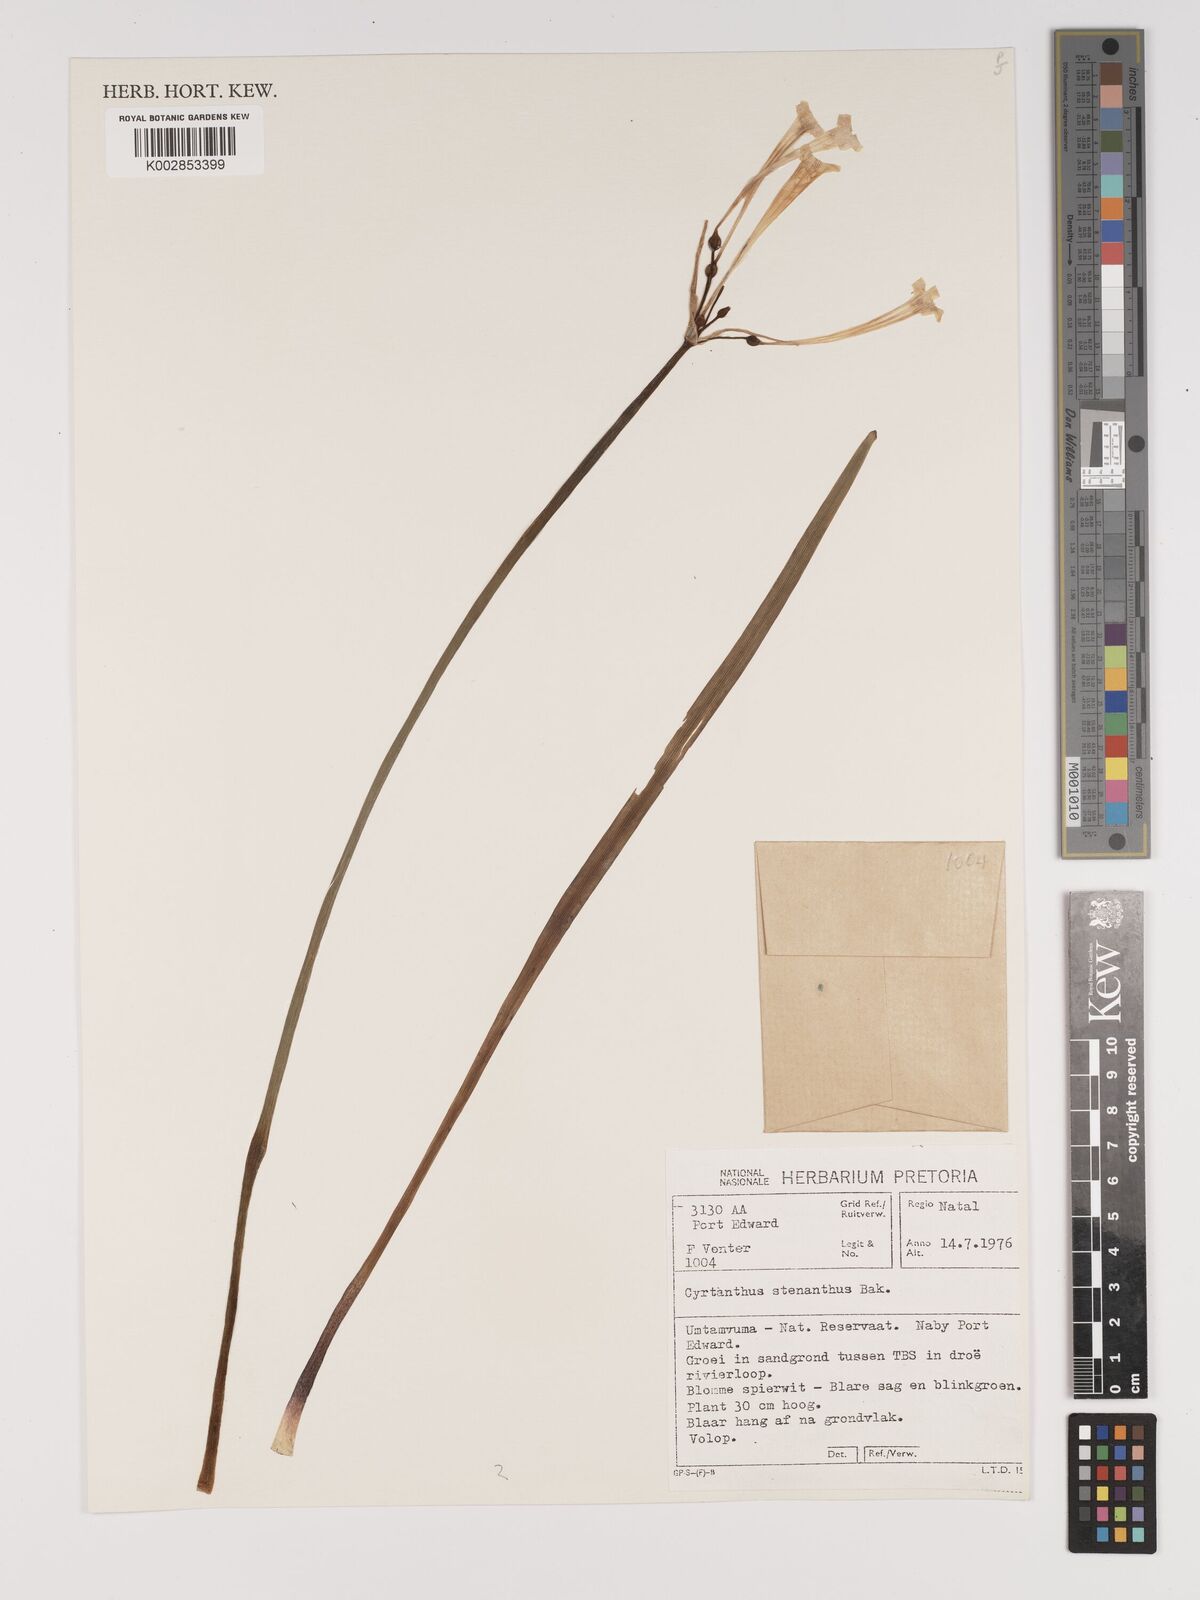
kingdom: Plantae
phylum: Tracheophyta
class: Liliopsida
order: Asparagales
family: Amaryllidaceae
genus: Cyrtanthus
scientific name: Cyrtanthus stenanthus
